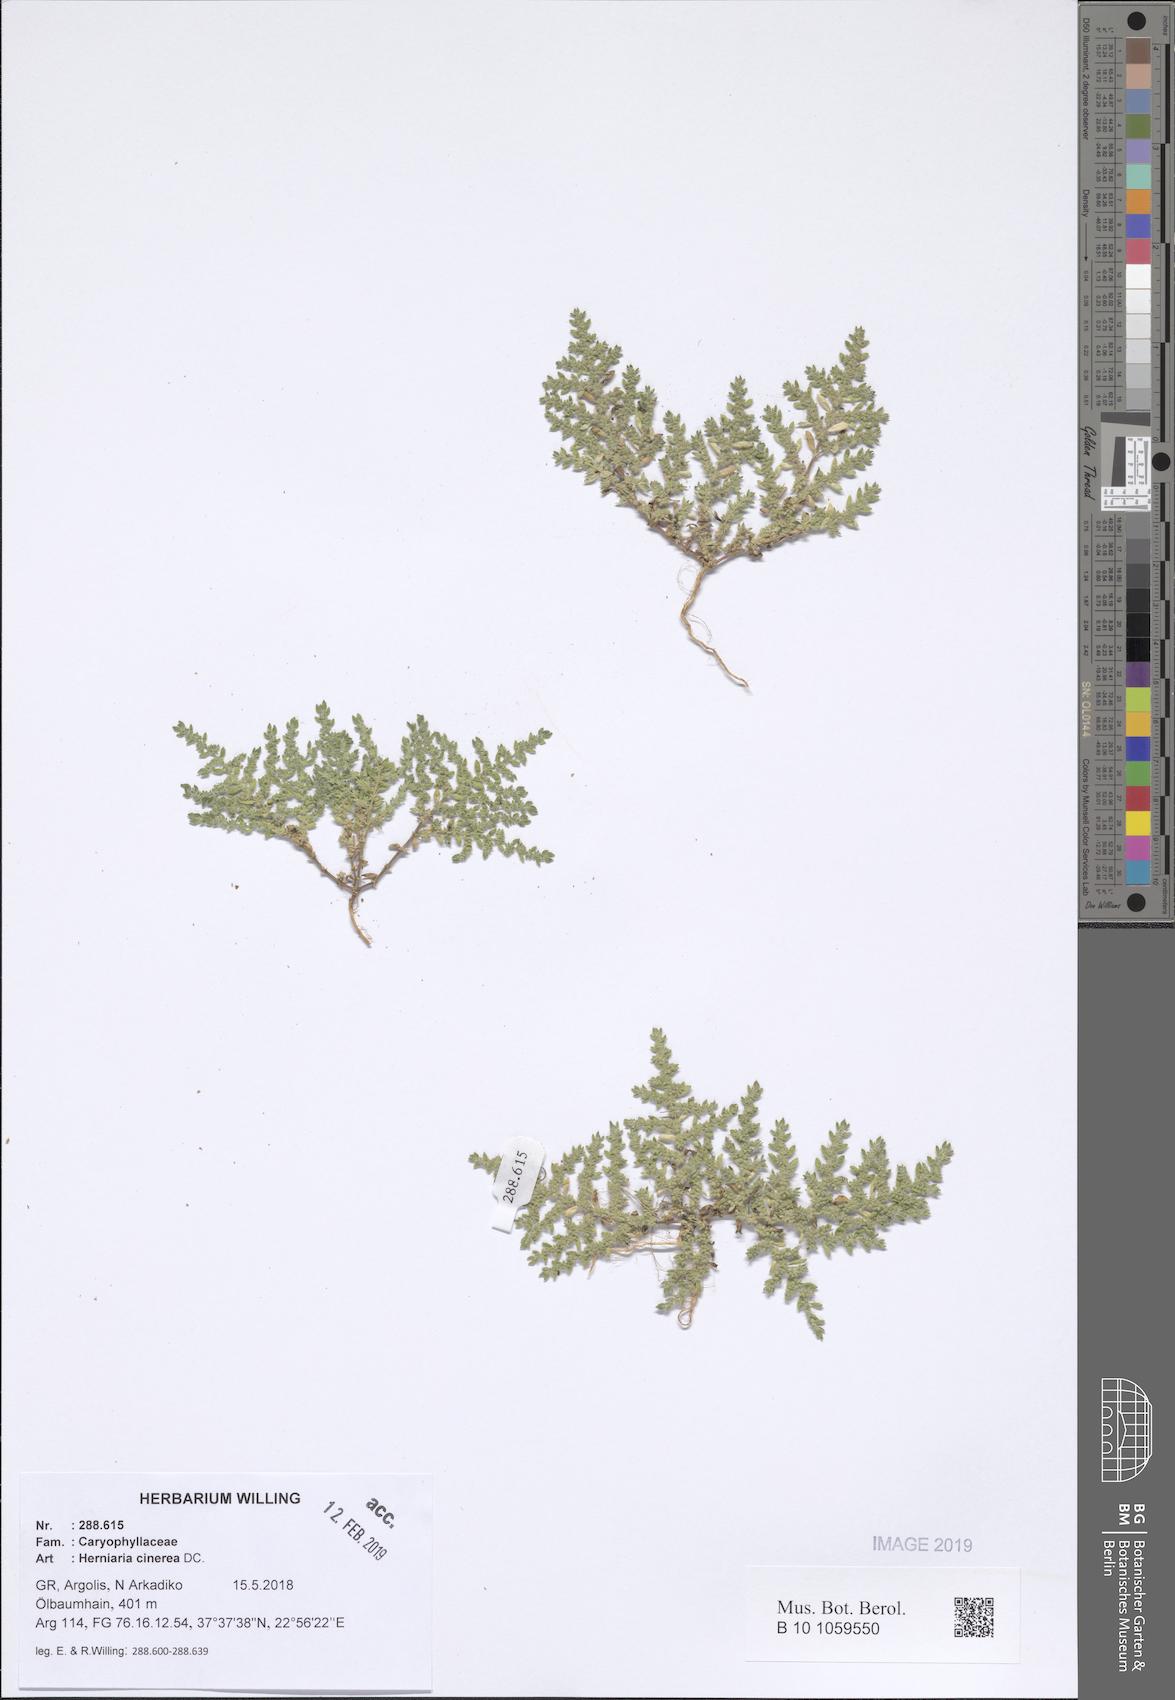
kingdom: Plantae
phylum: Tracheophyta
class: Magnoliopsida
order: Caryophyllales
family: Caryophyllaceae
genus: Herniaria
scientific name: Herniaria cinerea
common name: Hairy rupturewort
